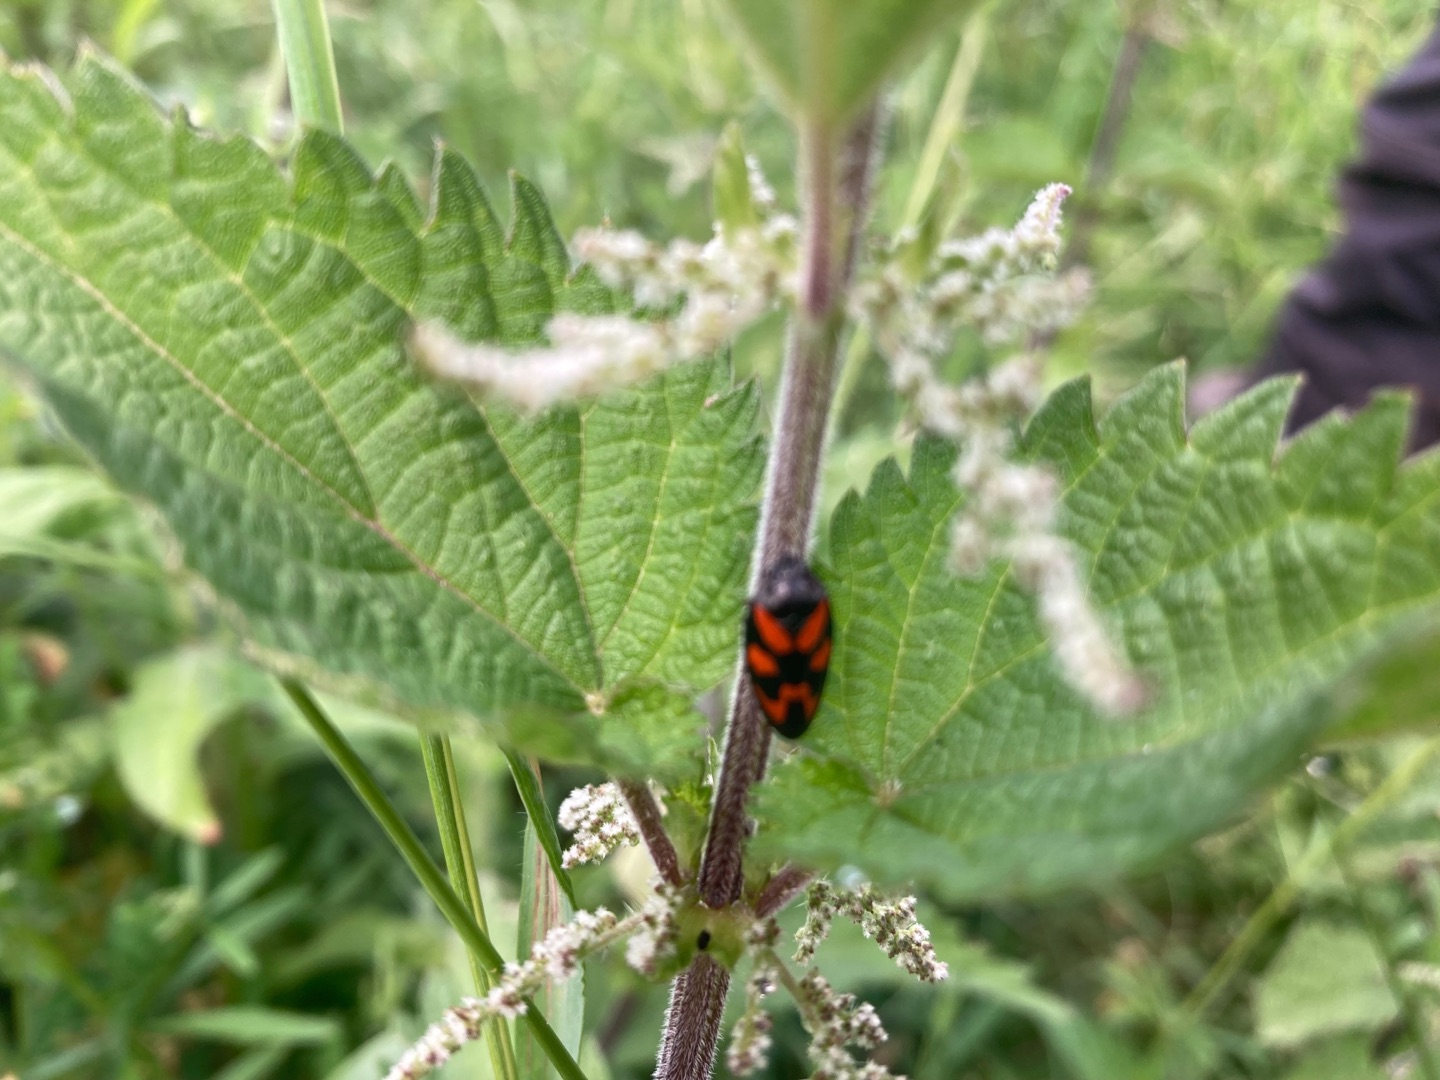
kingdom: Animalia
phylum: Arthropoda
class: Insecta
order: Hemiptera
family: Cercopidae
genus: Cercopis
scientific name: Cercopis vulnerata
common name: Blodcikade
